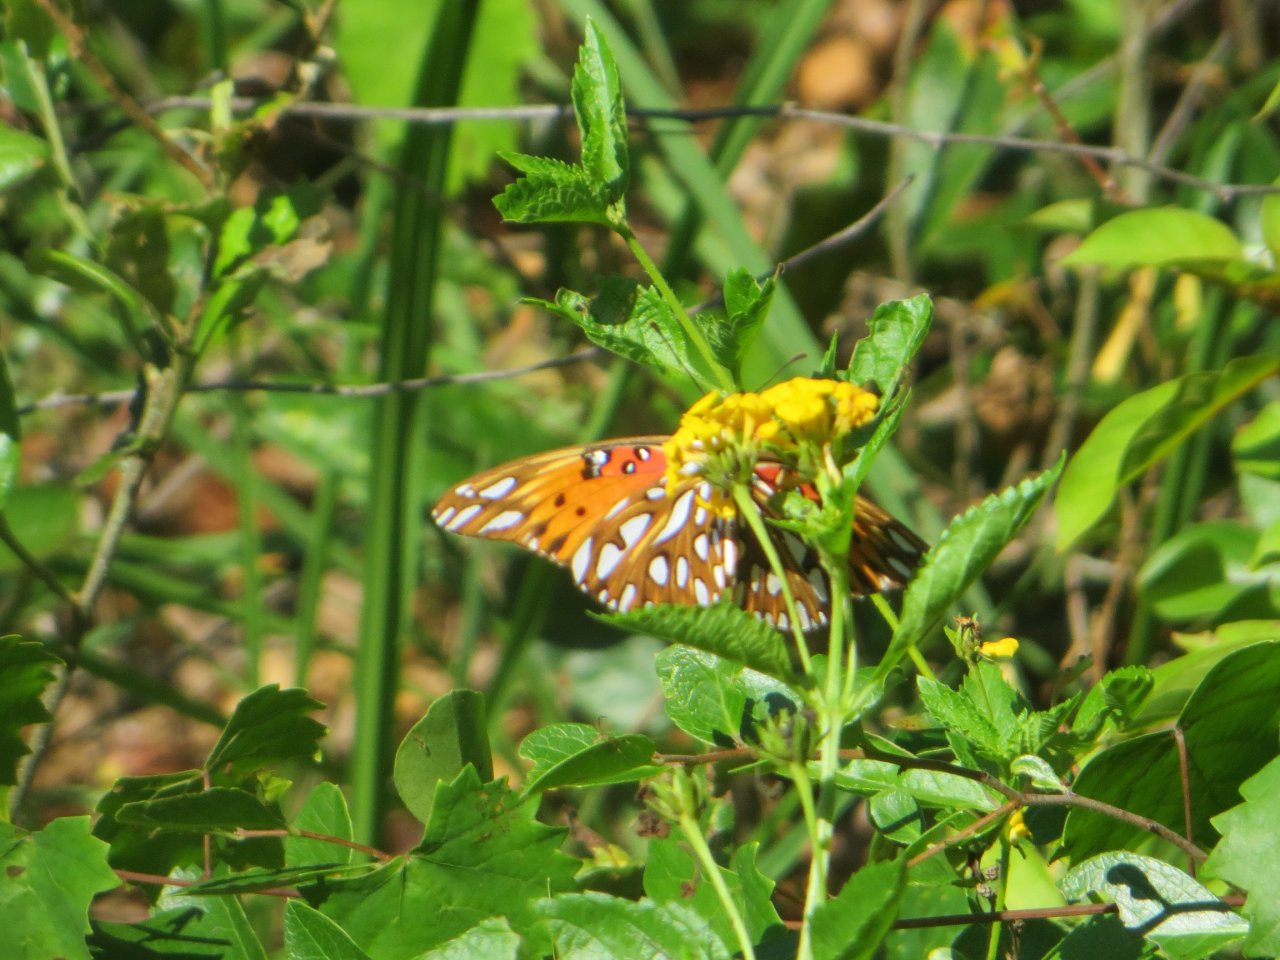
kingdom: Animalia
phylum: Arthropoda
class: Insecta
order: Lepidoptera
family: Nymphalidae
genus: Dione
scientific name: Dione vanillae
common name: Gulf Fritillary
